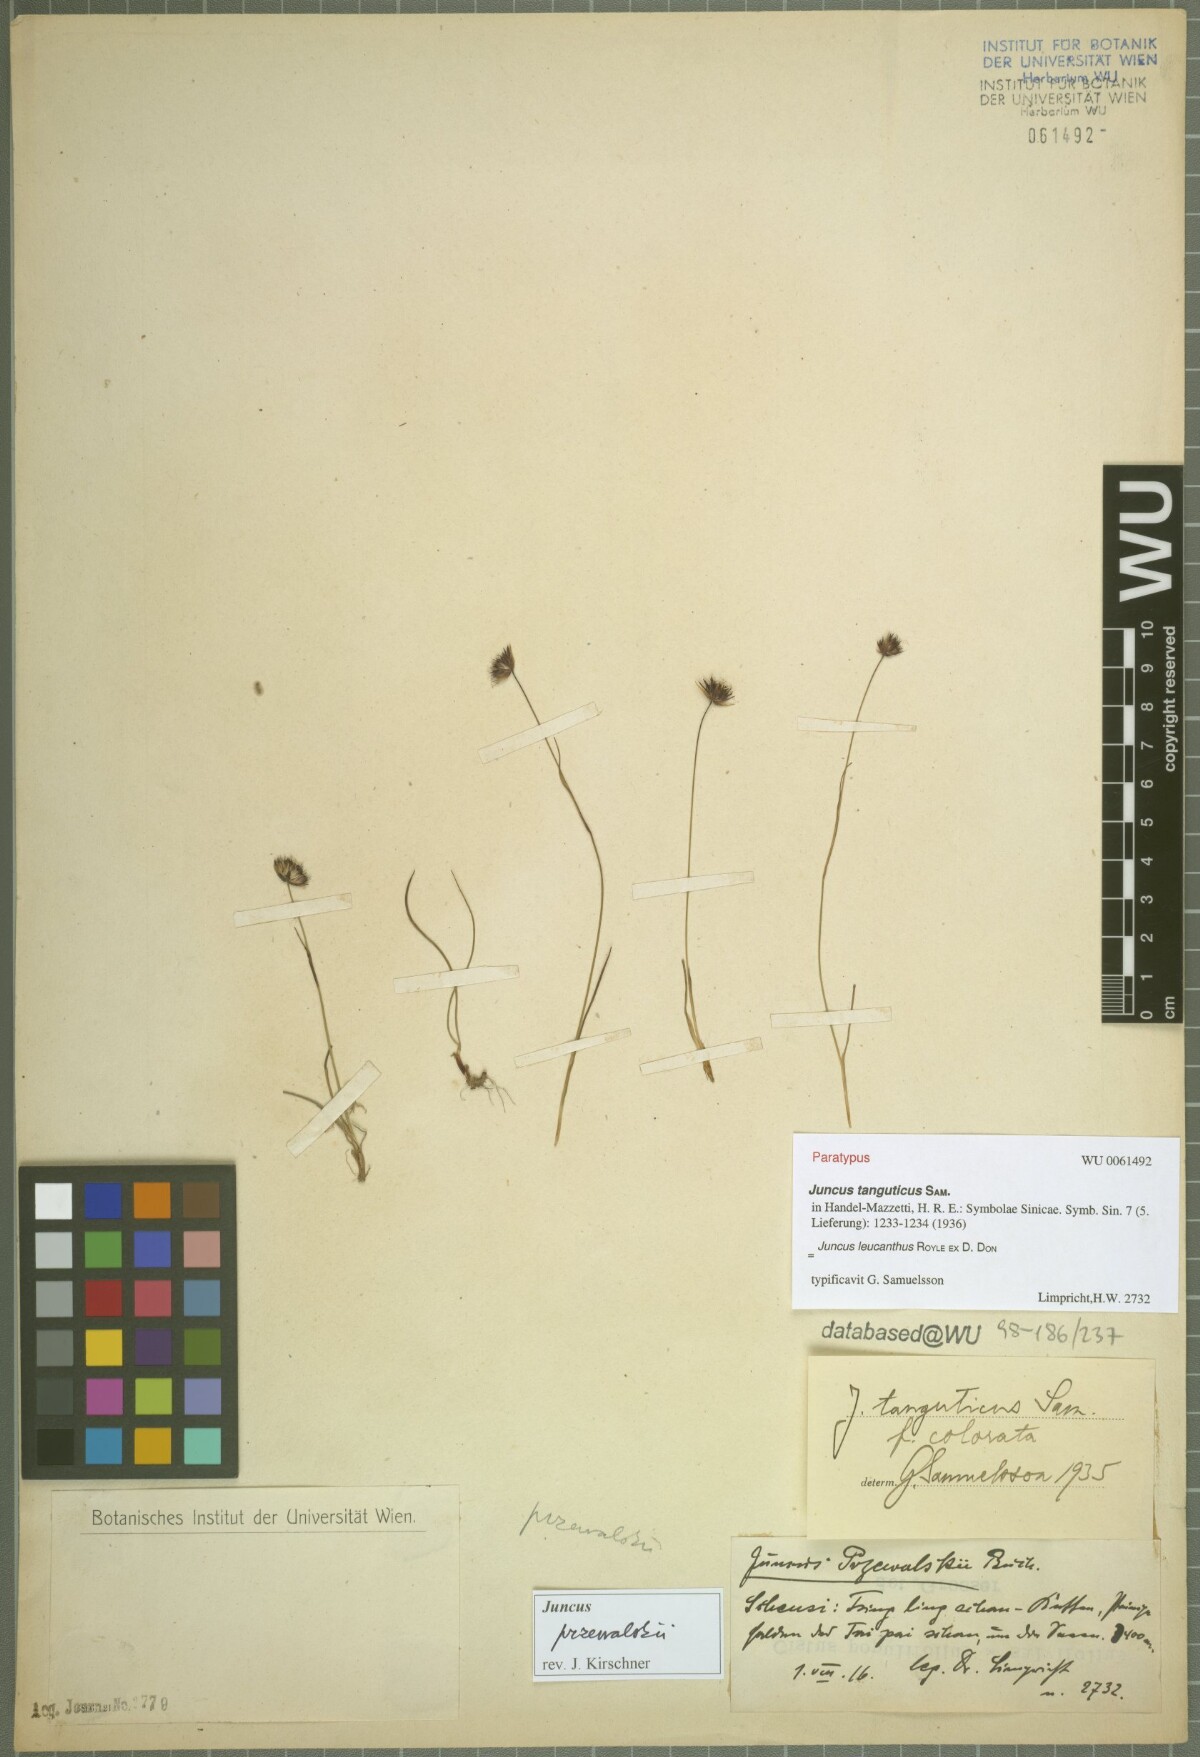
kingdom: Plantae
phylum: Tracheophyta
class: Liliopsida
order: Poales
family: Juncaceae
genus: Juncus
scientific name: Juncus leucanthus
